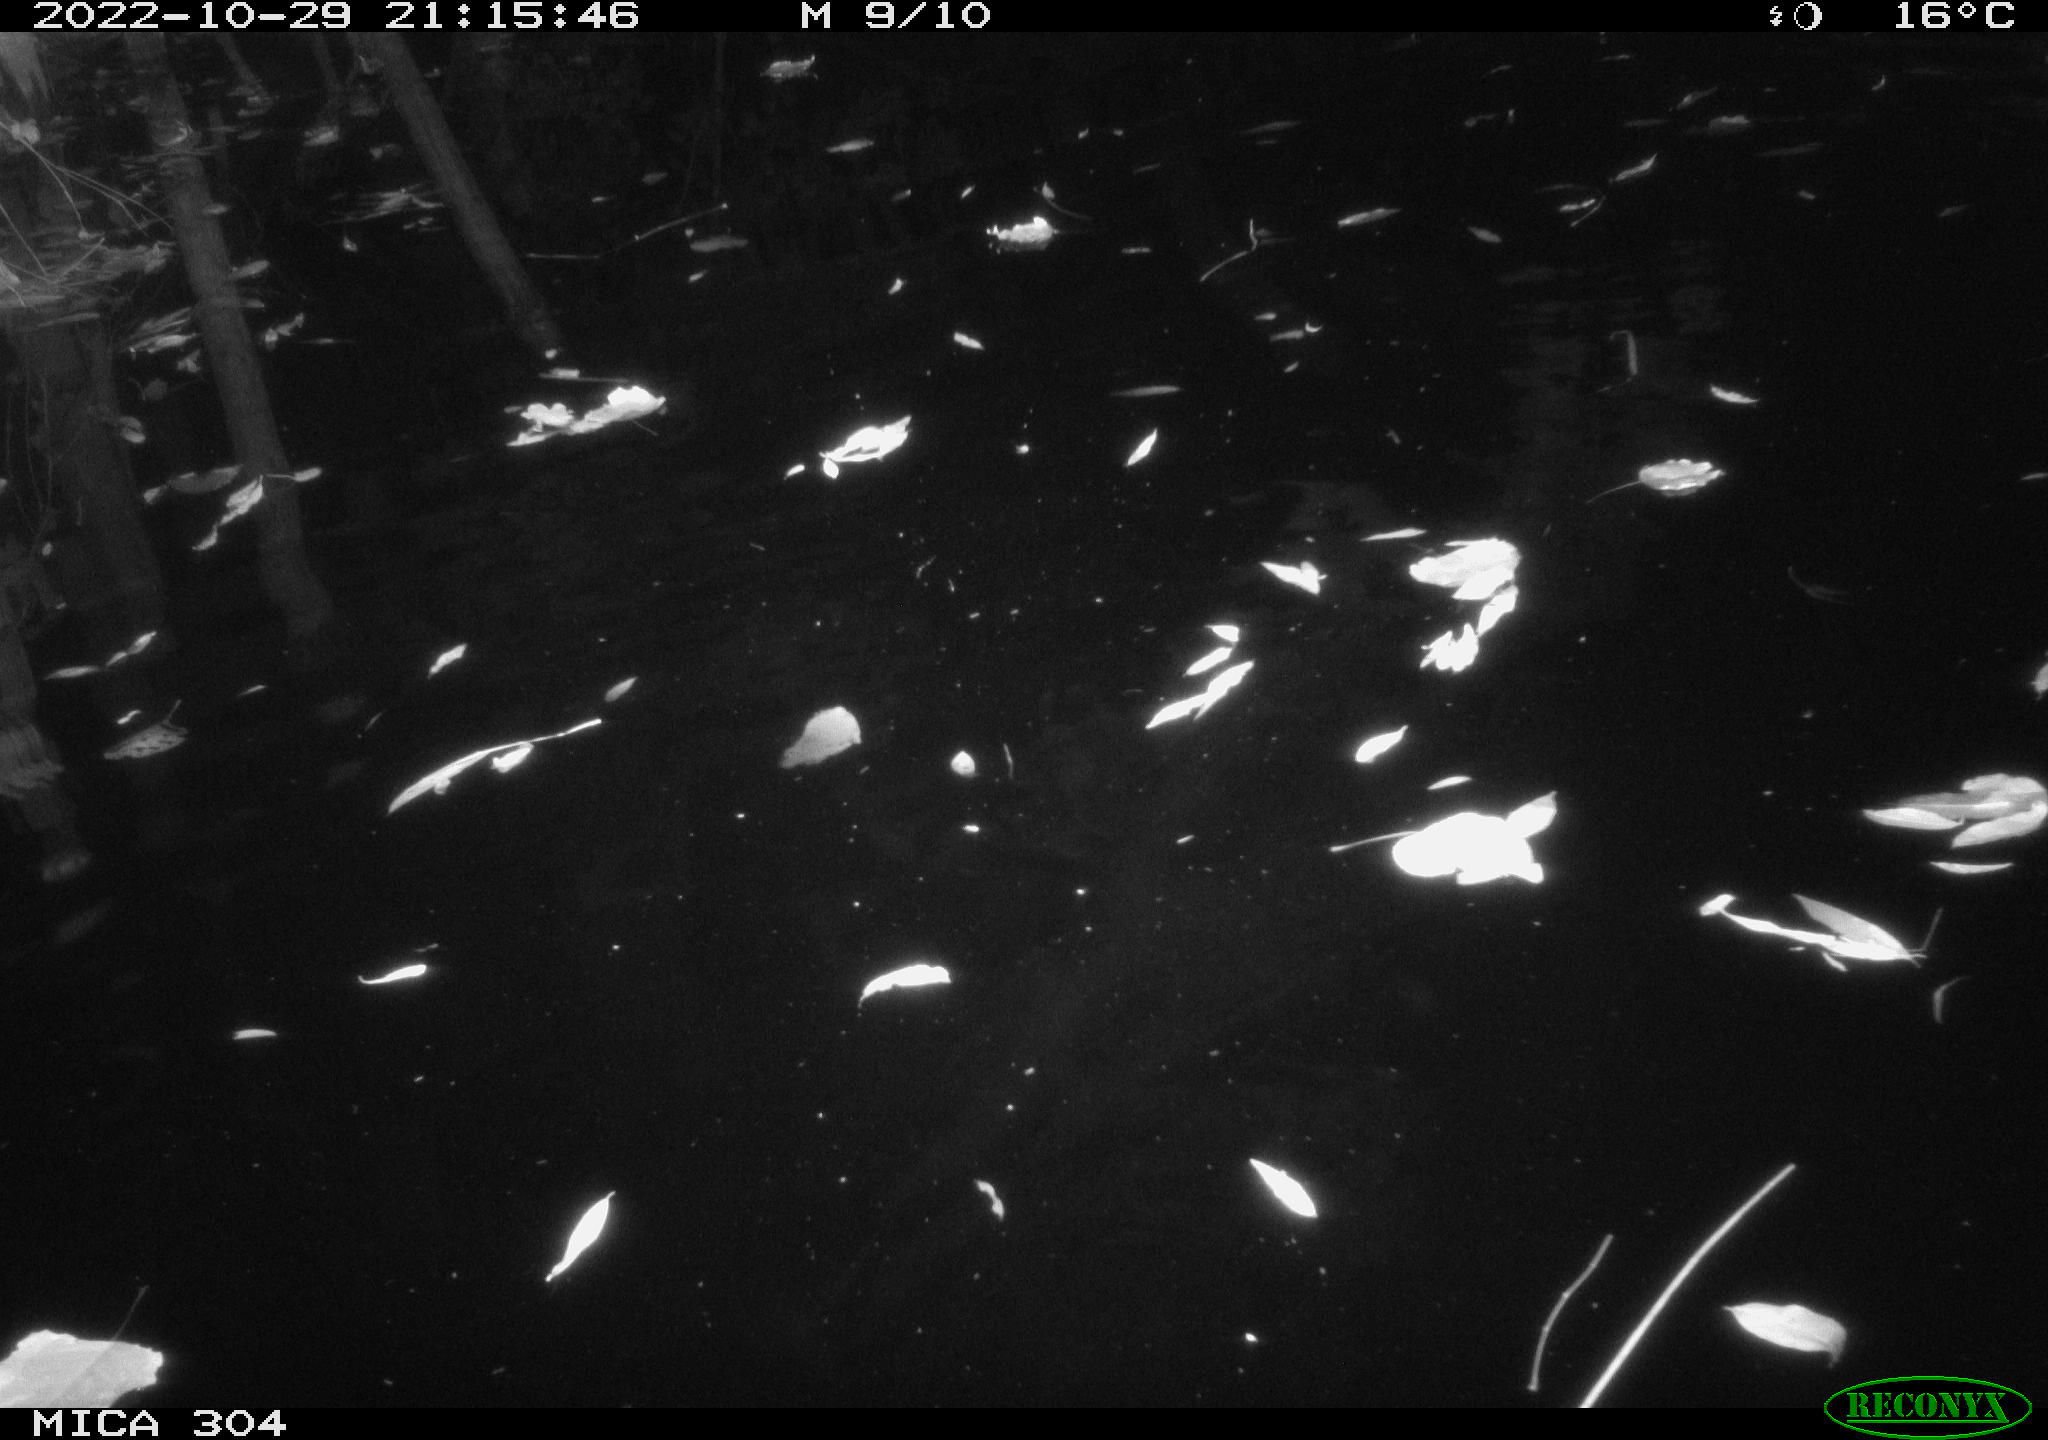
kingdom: Animalia
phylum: Chordata
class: Mammalia
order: Rodentia
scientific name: Rodentia
